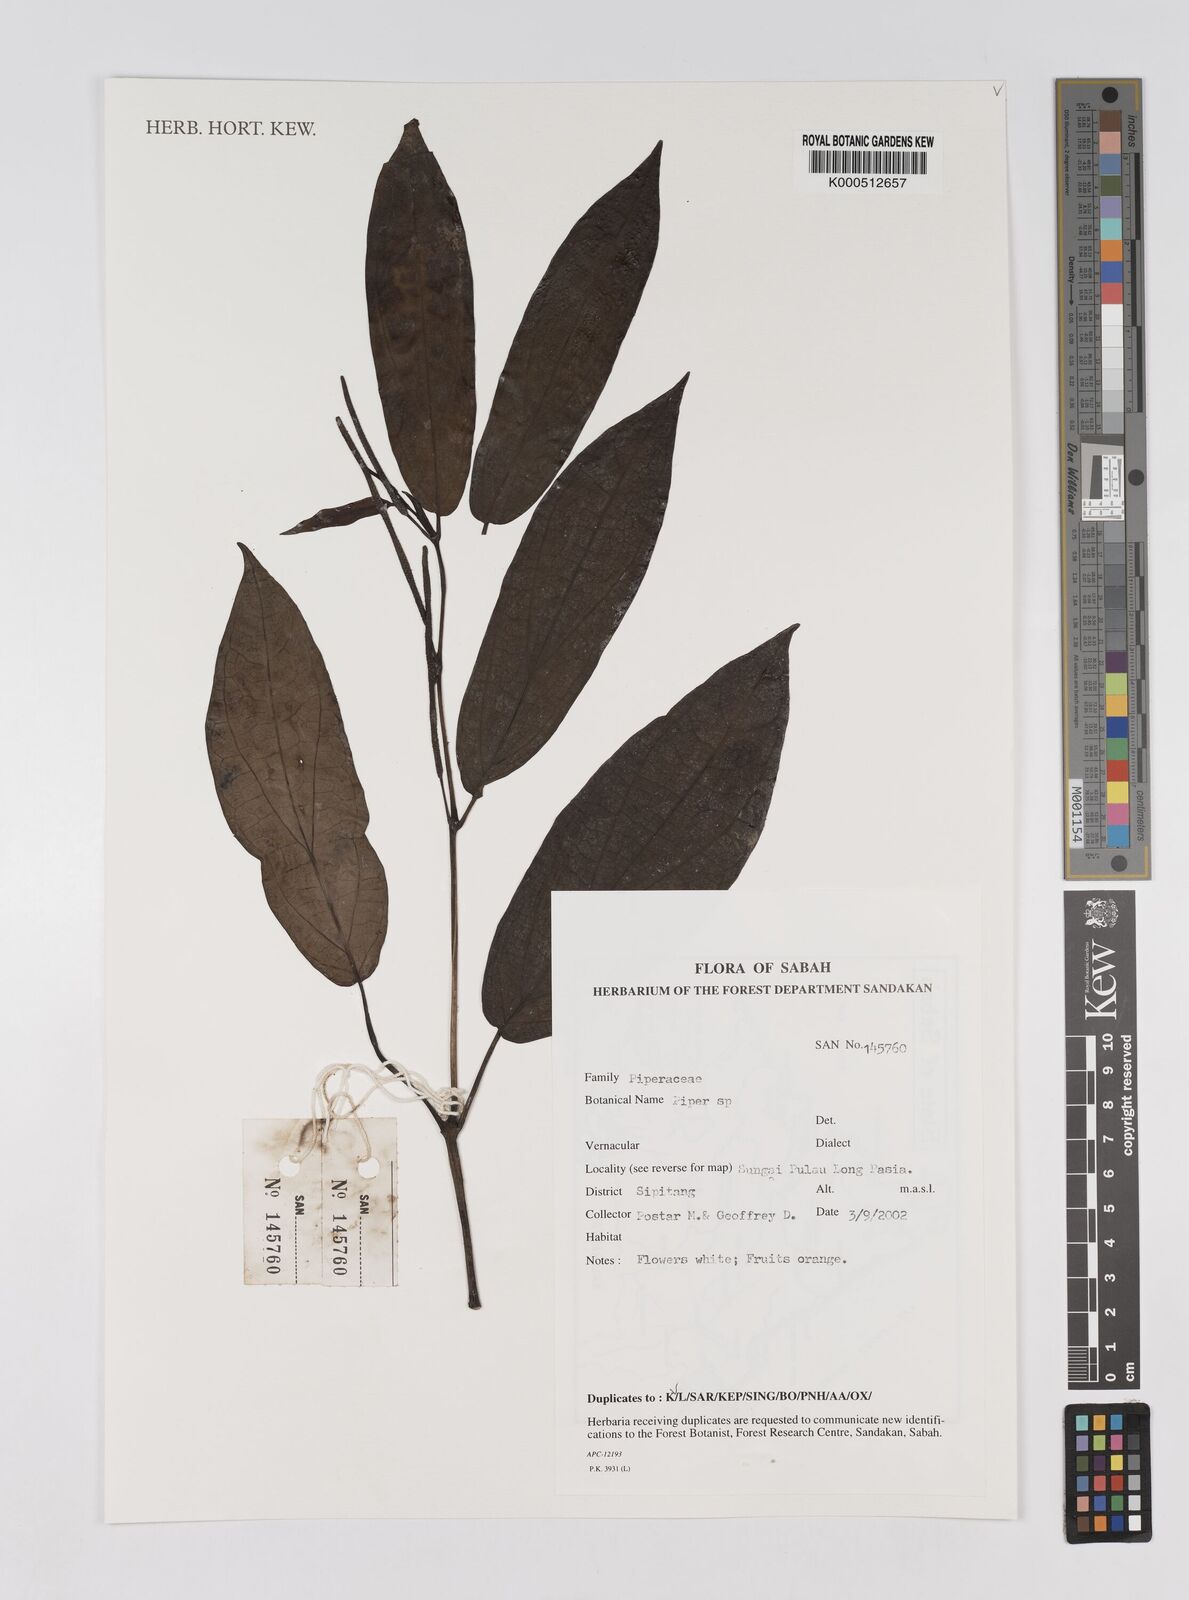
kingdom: Plantae
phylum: Tracheophyta
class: Magnoliopsida
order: Piperales
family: Piperaceae
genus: Piper
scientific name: Piper
